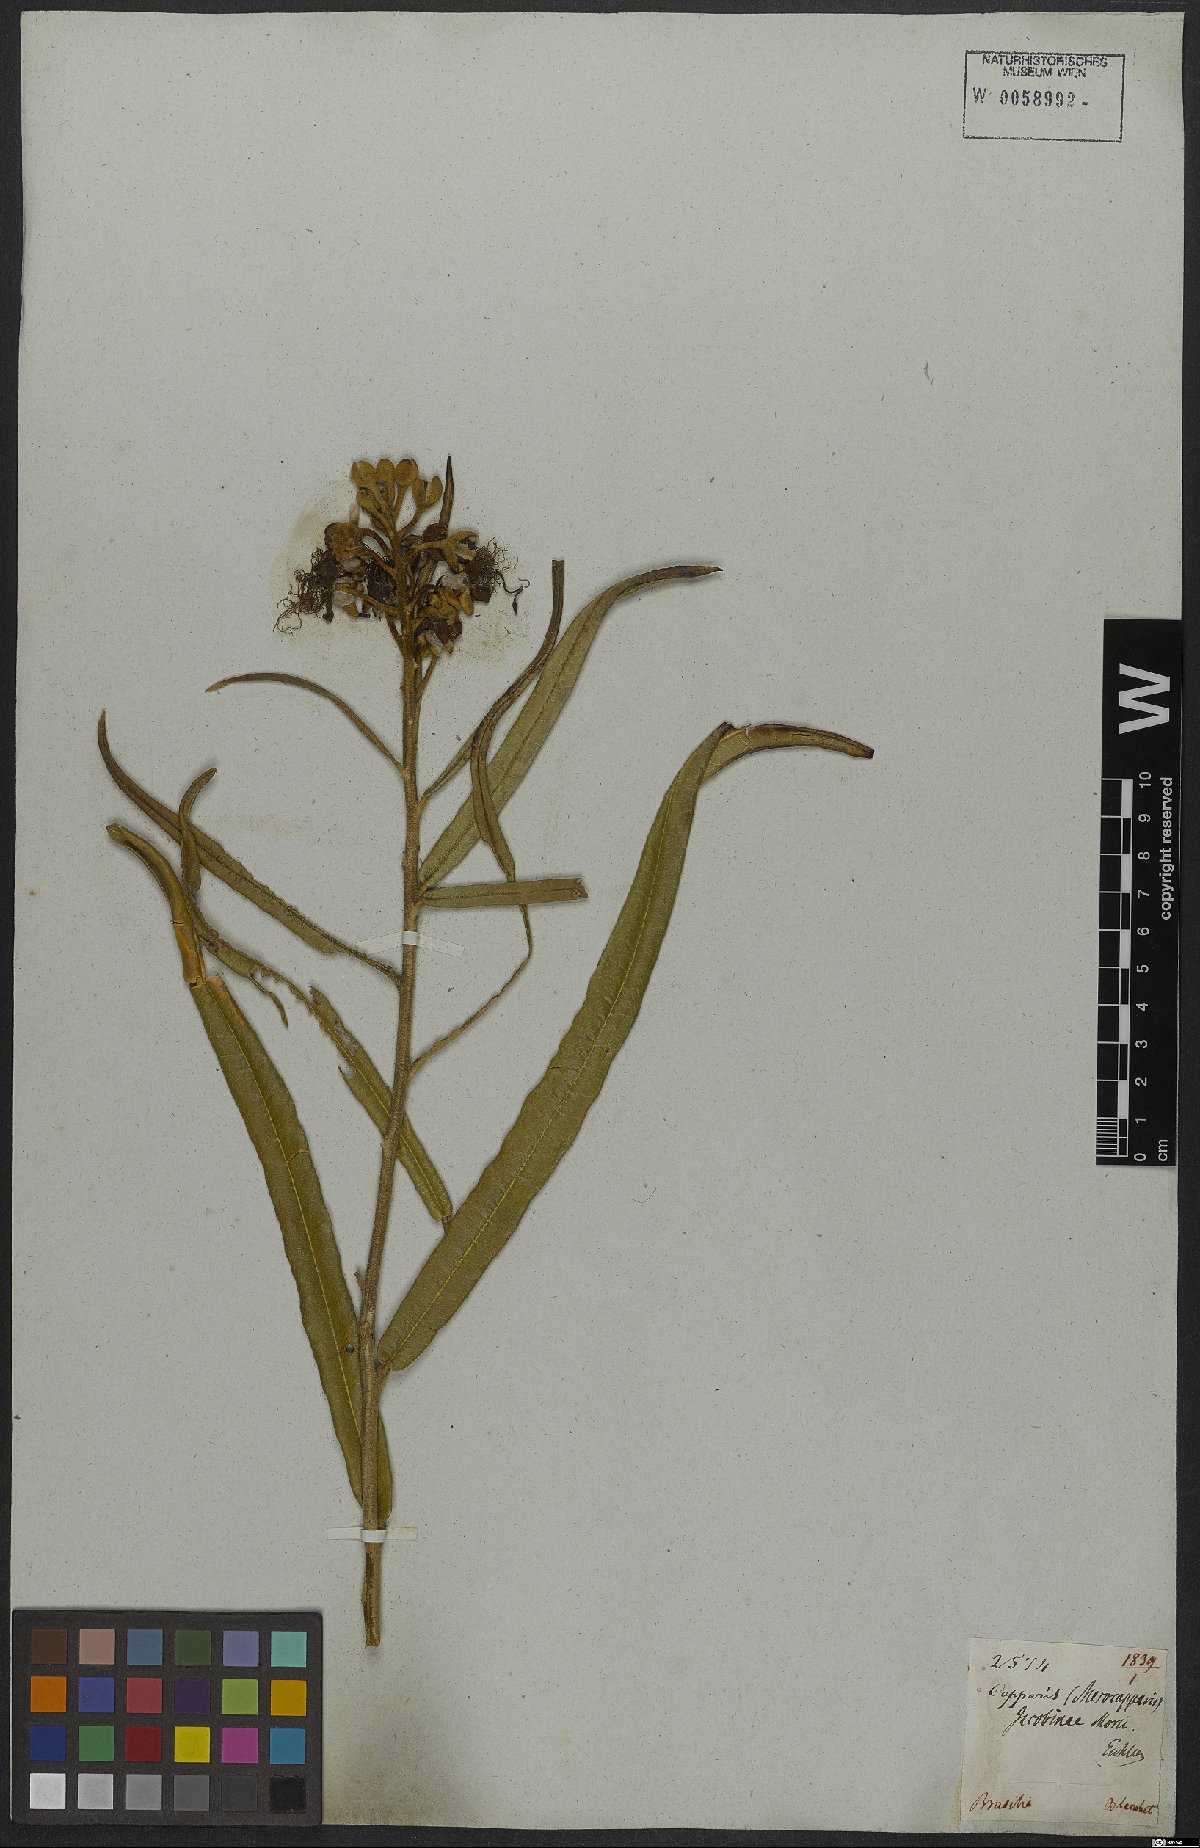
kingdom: Plantae
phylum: Tracheophyta
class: Magnoliopsida
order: Brassicales
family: Capparaceae
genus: Neocalyptrocalyx
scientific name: Neocalyptrocalyx longifolium
